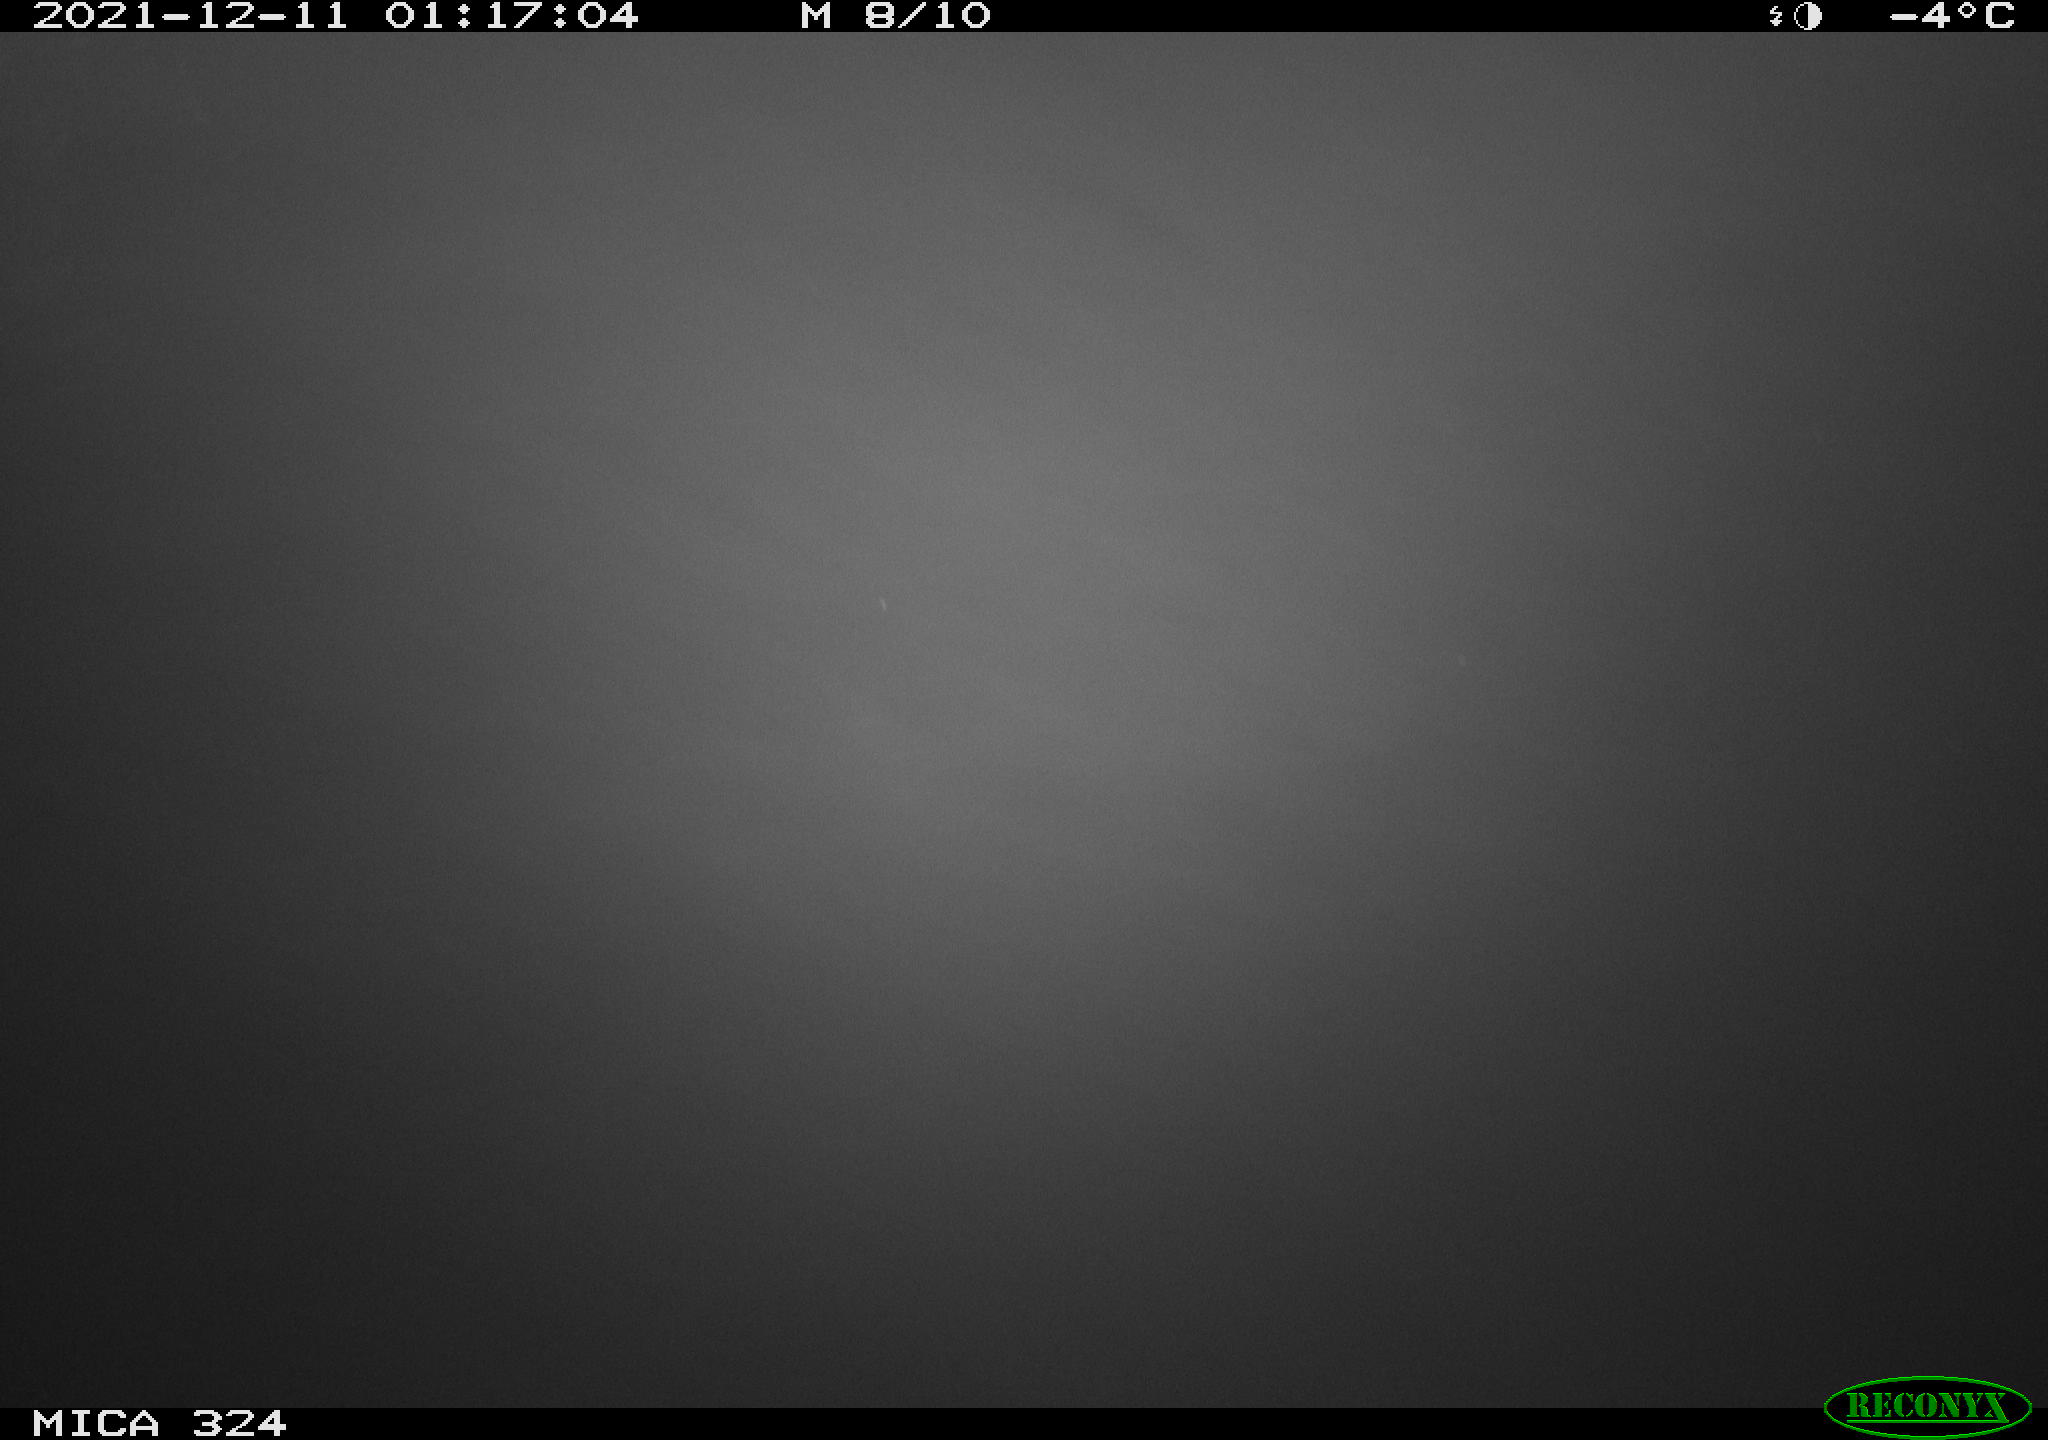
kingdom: Animalia
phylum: Chordata
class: Mammalia
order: Rodentia
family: Cricetidae
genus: Ondatra
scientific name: Ondatra zibethicus
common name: Muskrat
